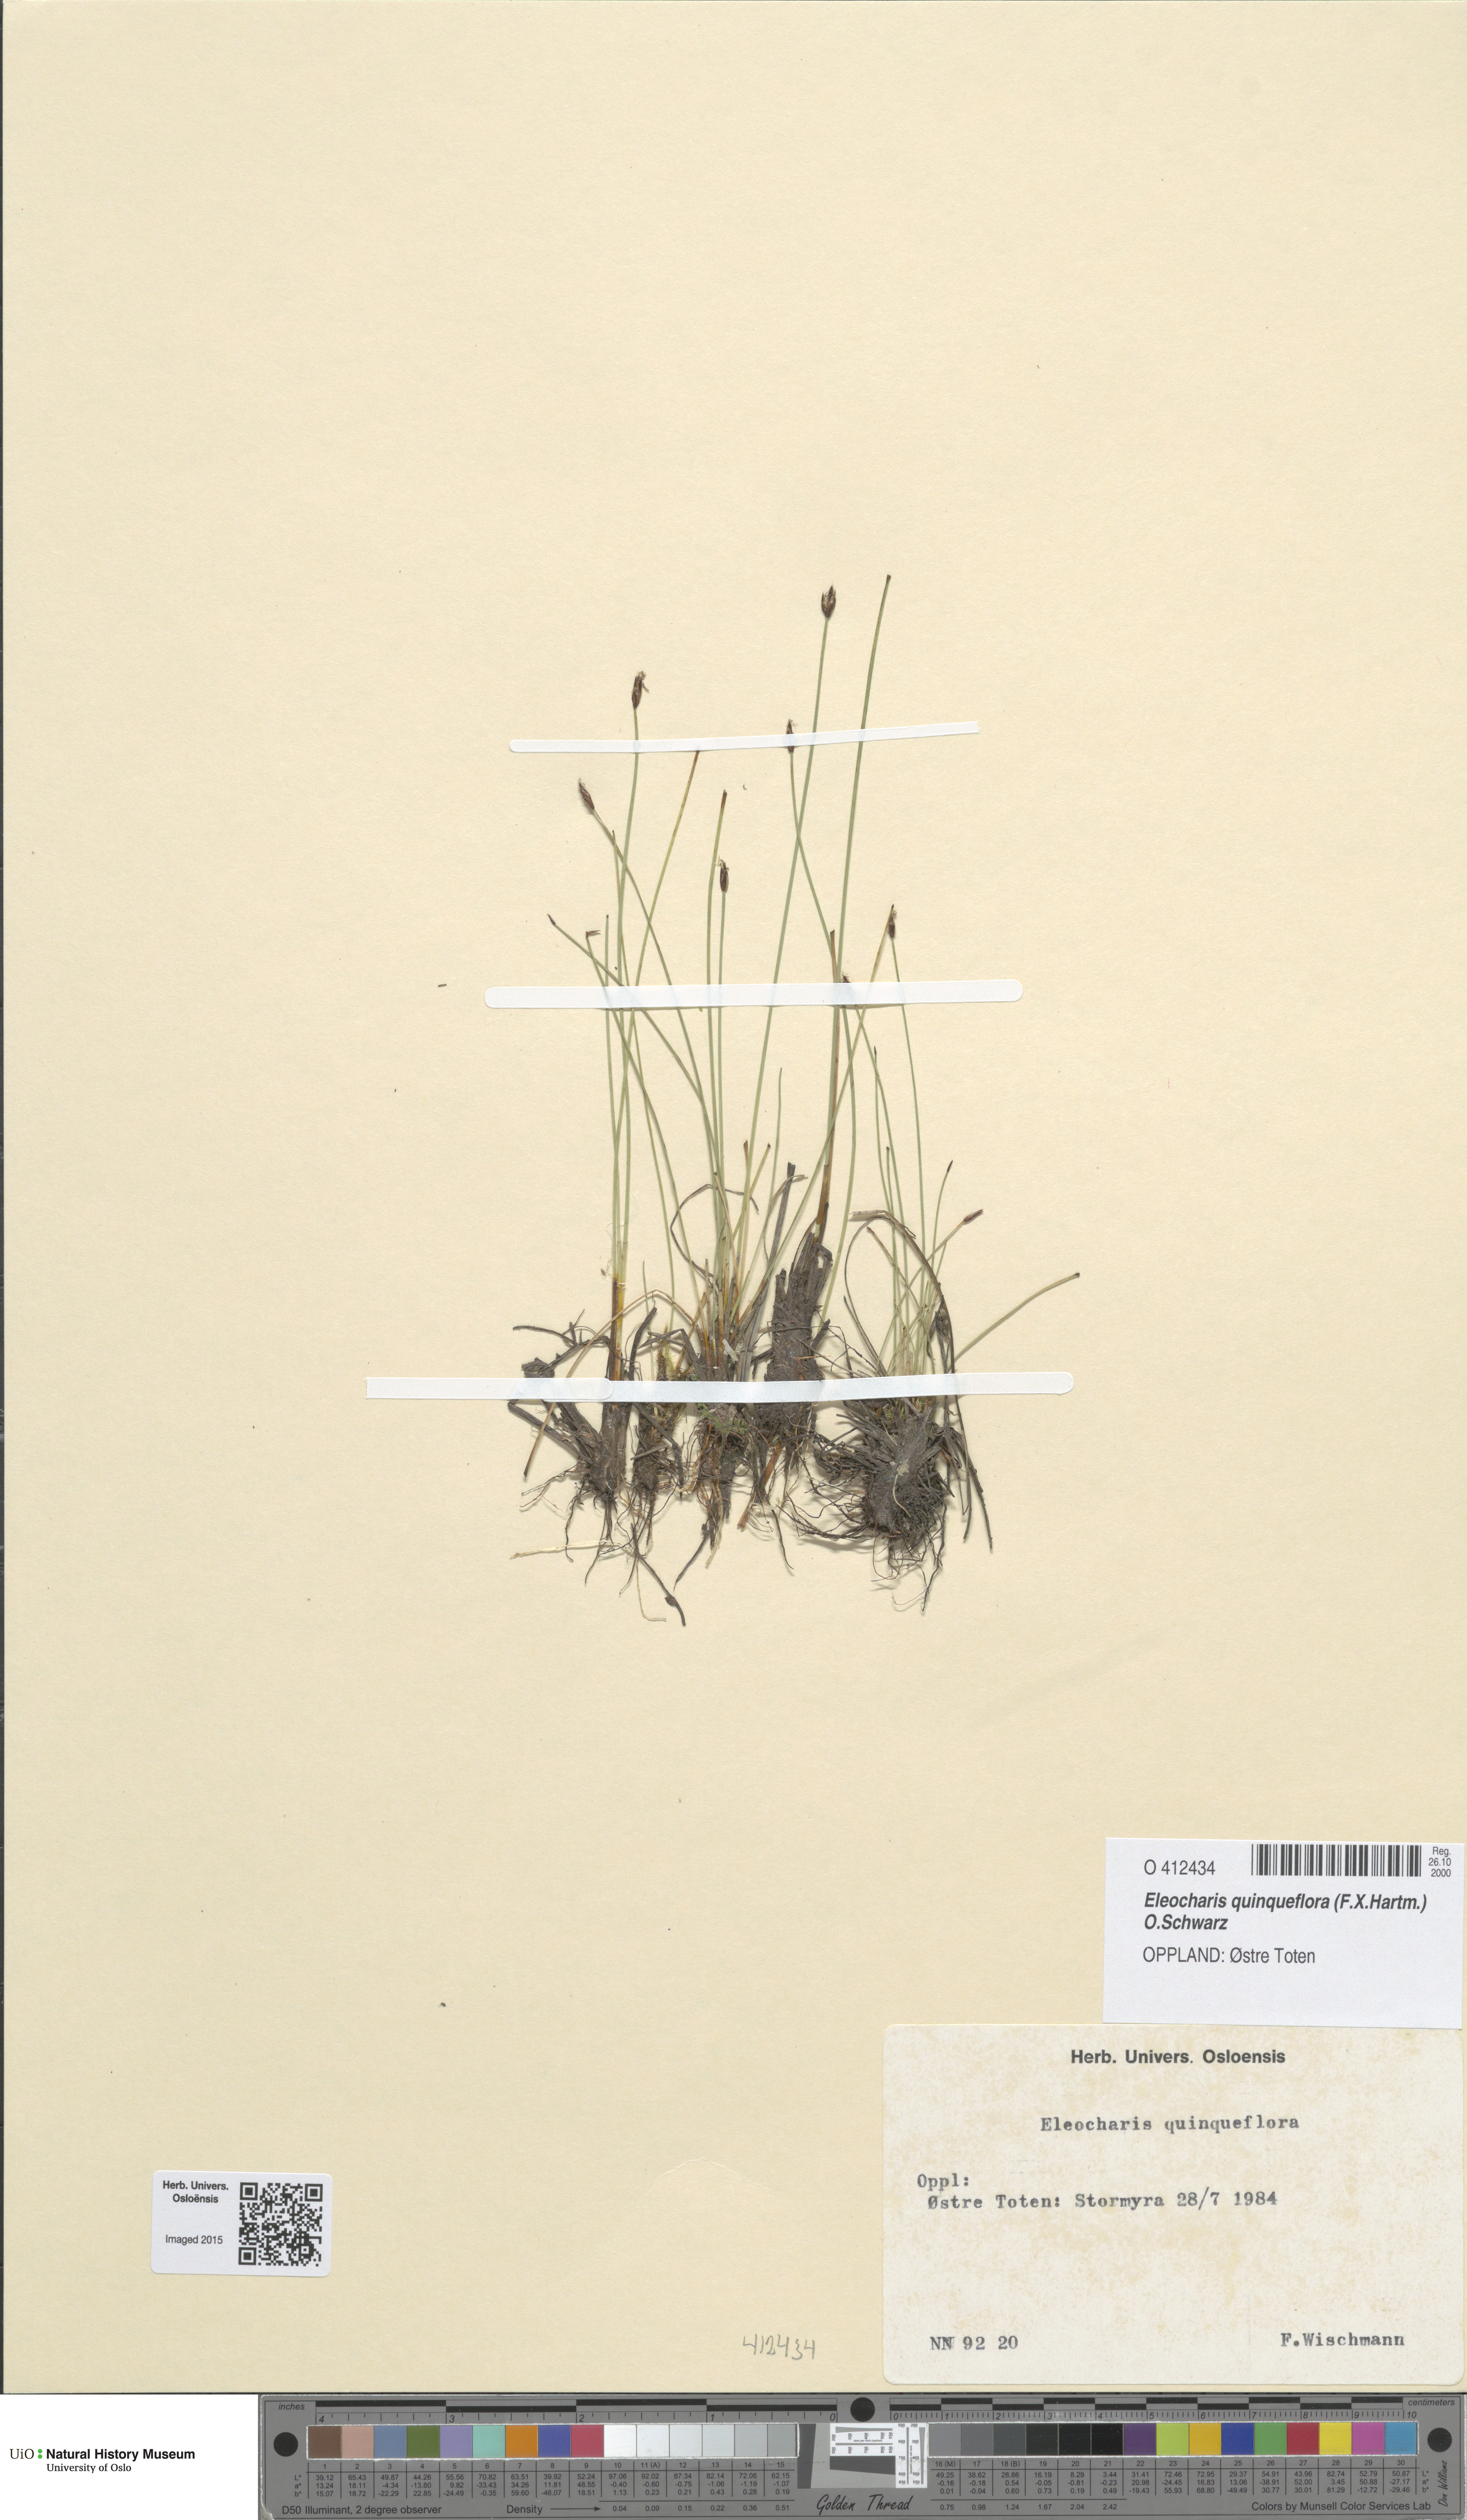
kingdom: Plantae
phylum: Tracheophyta
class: Liliopsida
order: Poales
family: Cyperaceae
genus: Eleocharis
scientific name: Eleocharis quinqueflora
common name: Few-flowered spike-rush
